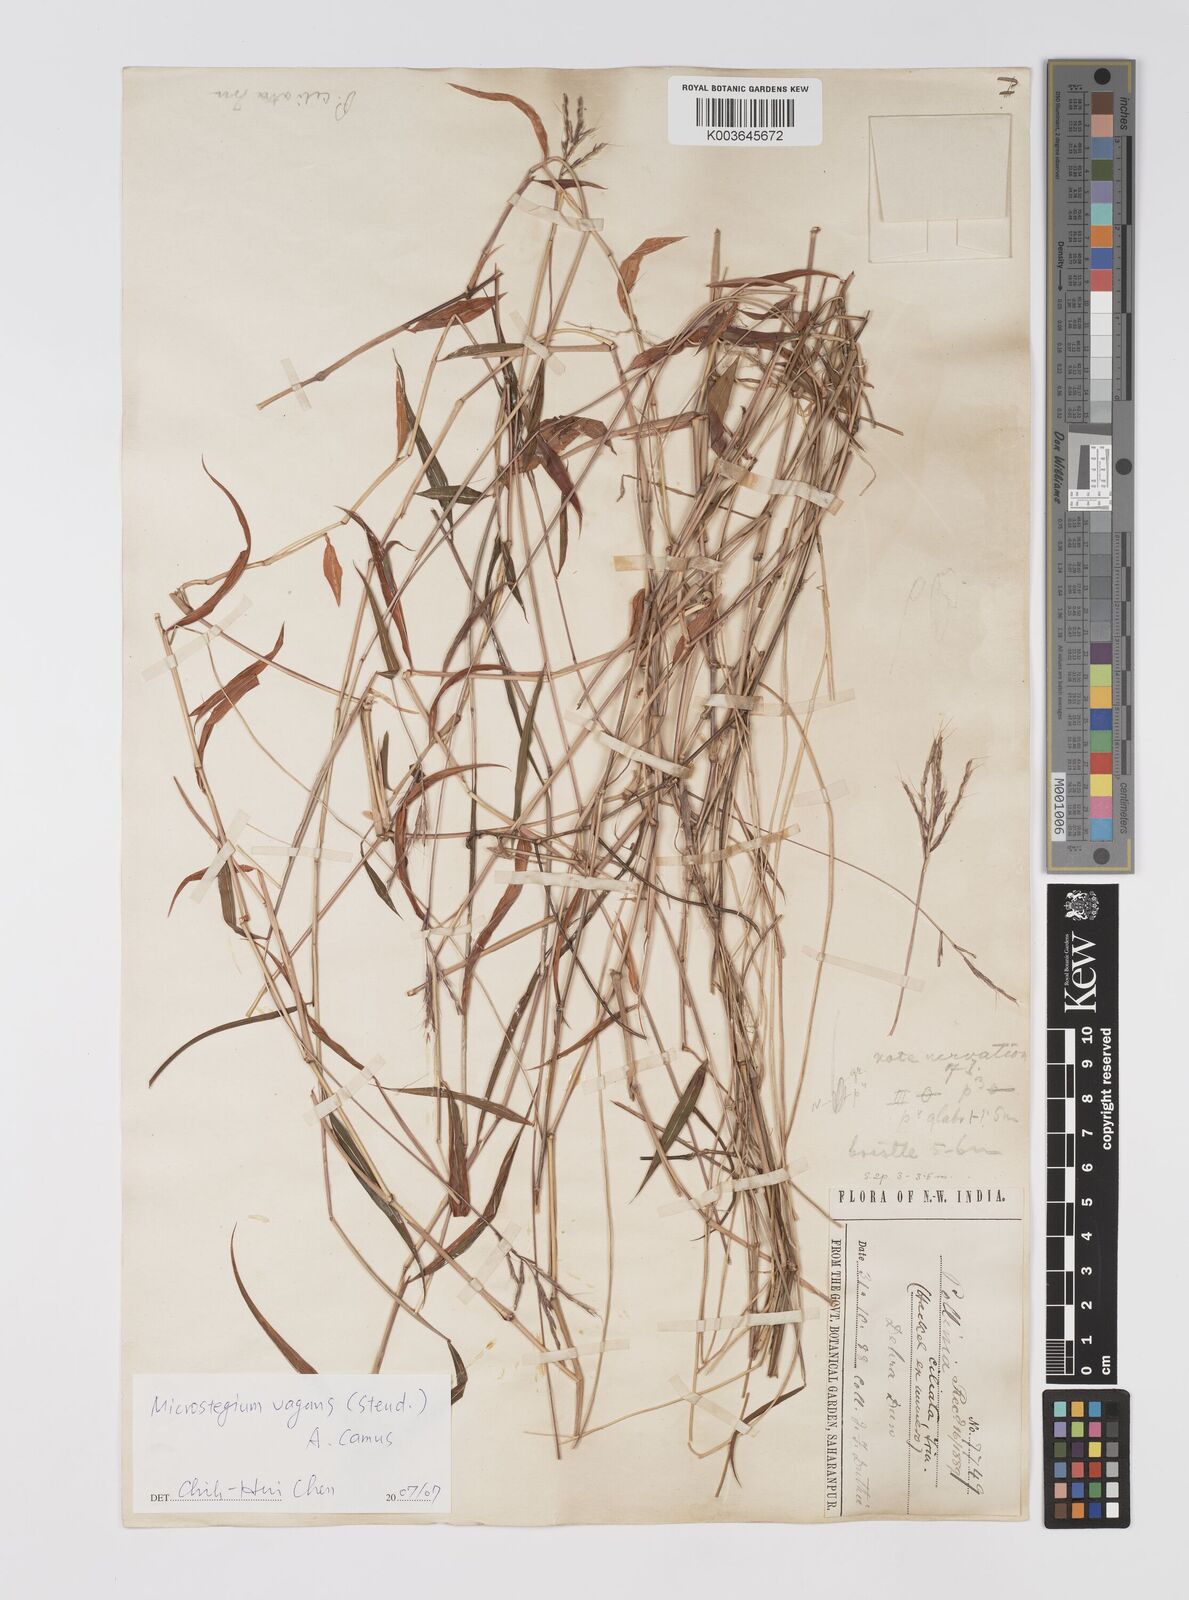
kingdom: Plantae
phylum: Tracheophyta
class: Liliopsida
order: Poales
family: Poaceae
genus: Microstegium
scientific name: Microstegium fasciculatum
